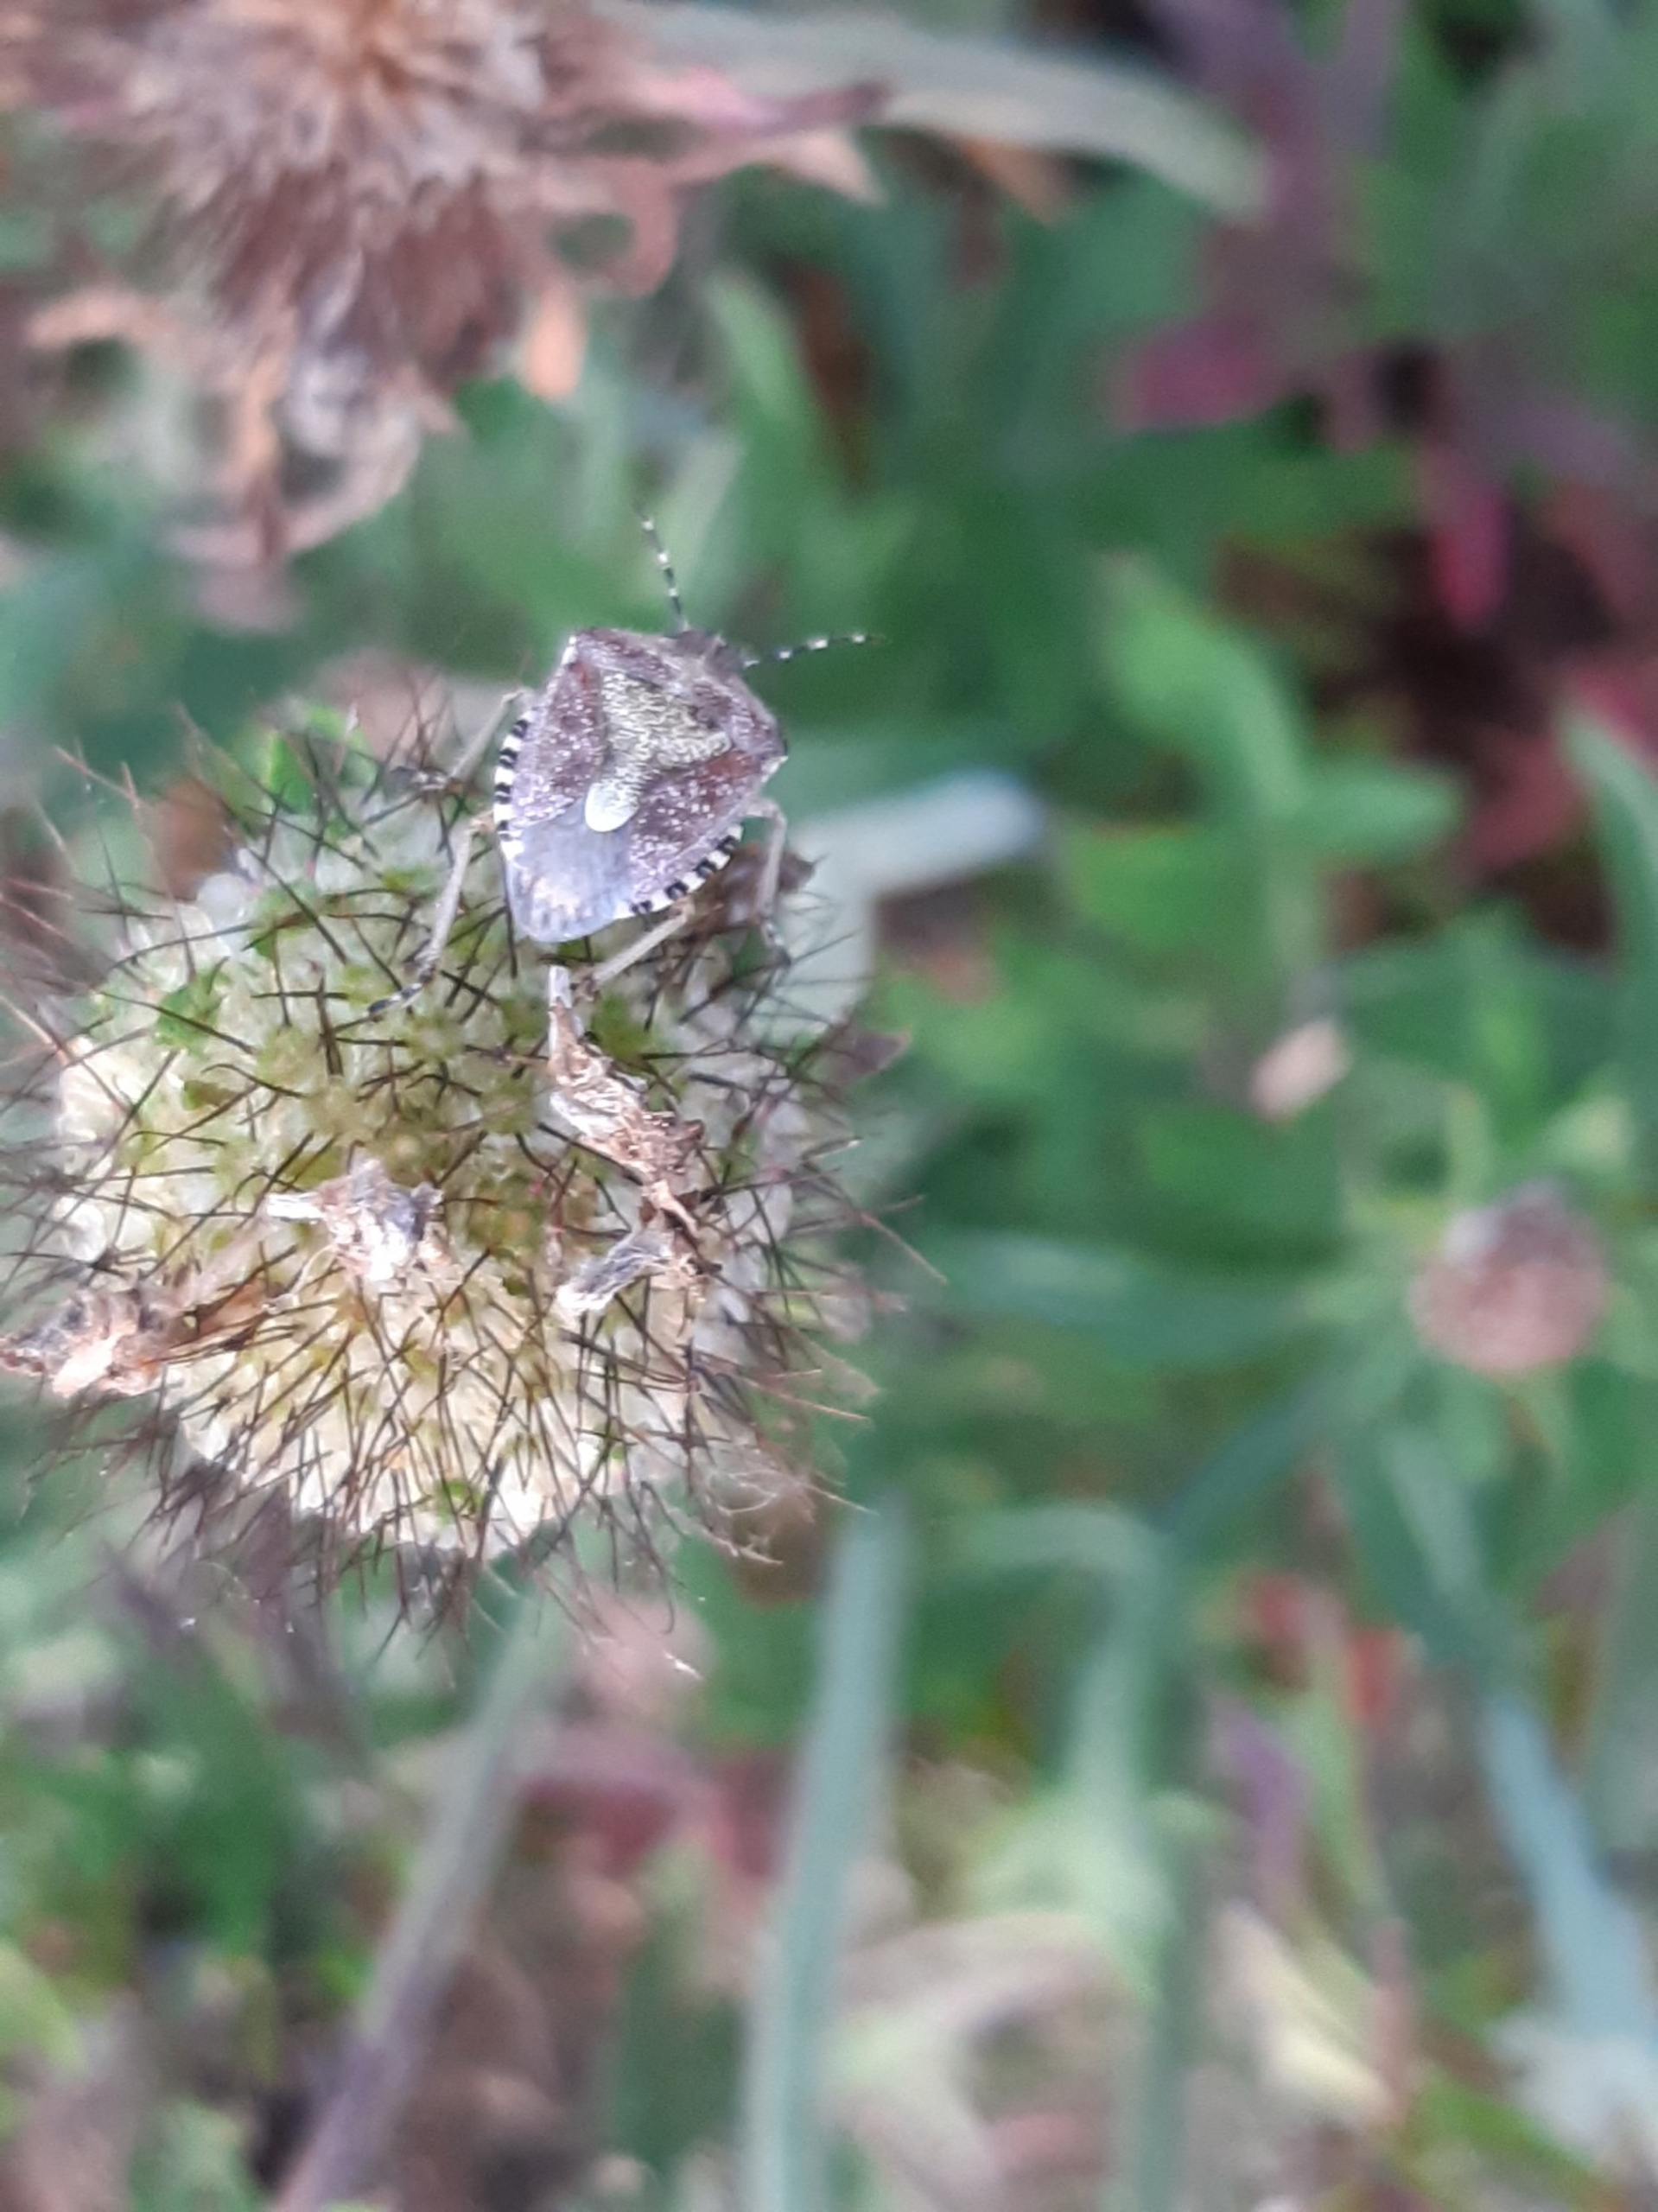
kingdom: Animalia
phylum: Arthropoda
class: Insecta
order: Hemiptera
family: Pentatomidae
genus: Dolycoris
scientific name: Dolycoris baccarum
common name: Almindelig bærtæge
